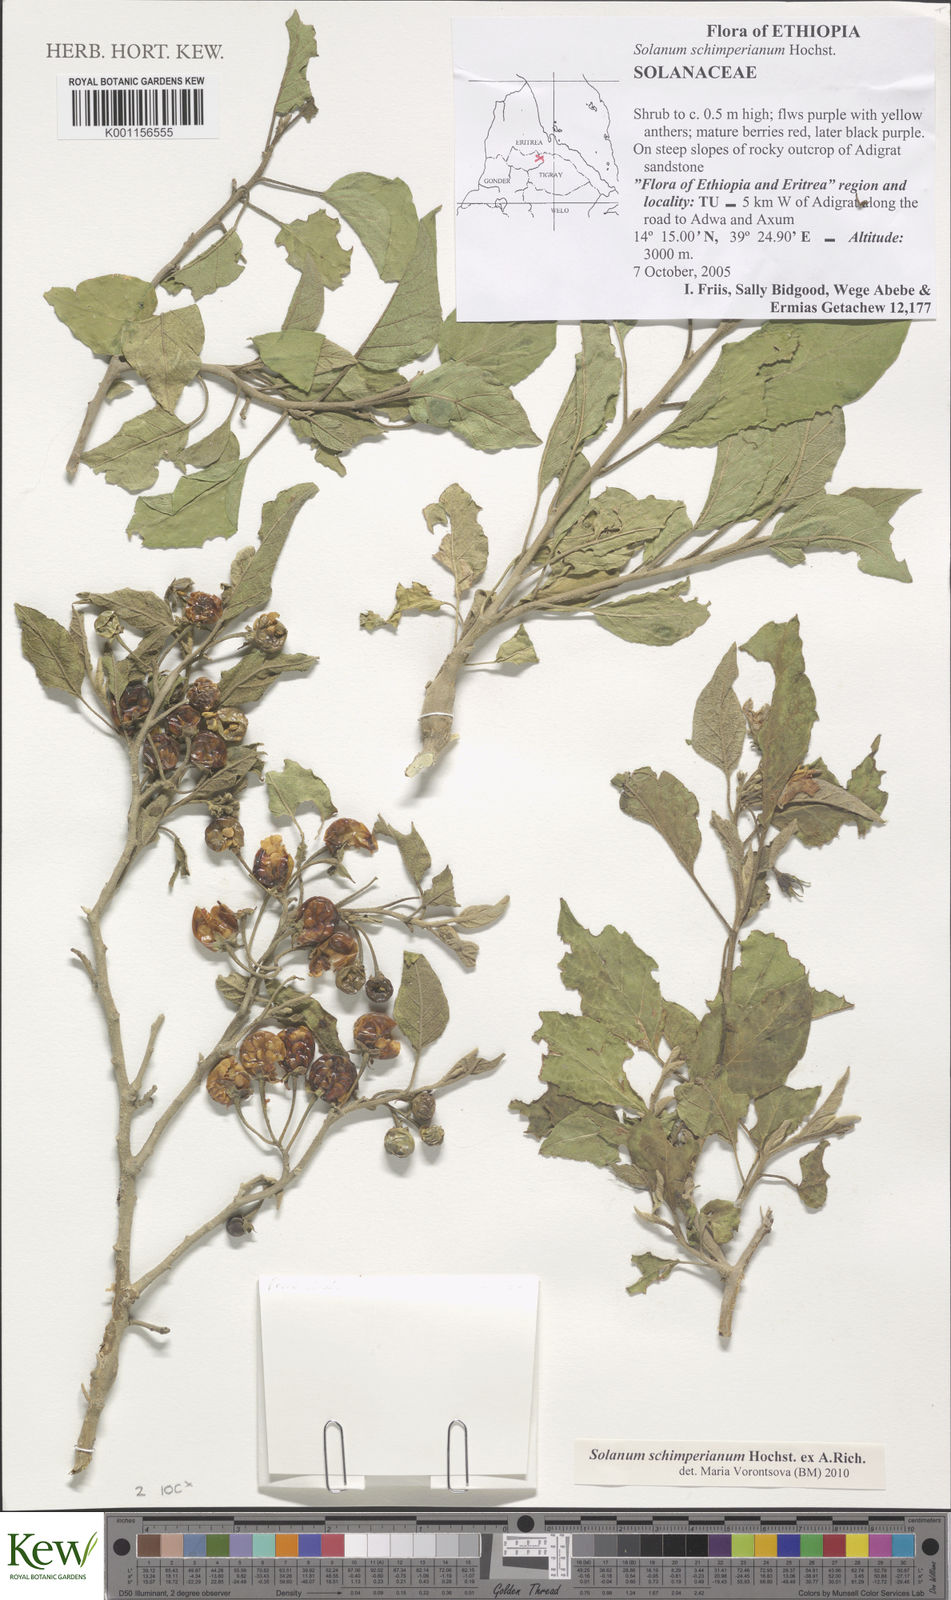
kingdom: Plantae
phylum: Tracheophyta
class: Magnoliopsida
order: Solanales
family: Solanaceae
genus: Solanum
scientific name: Solanum
